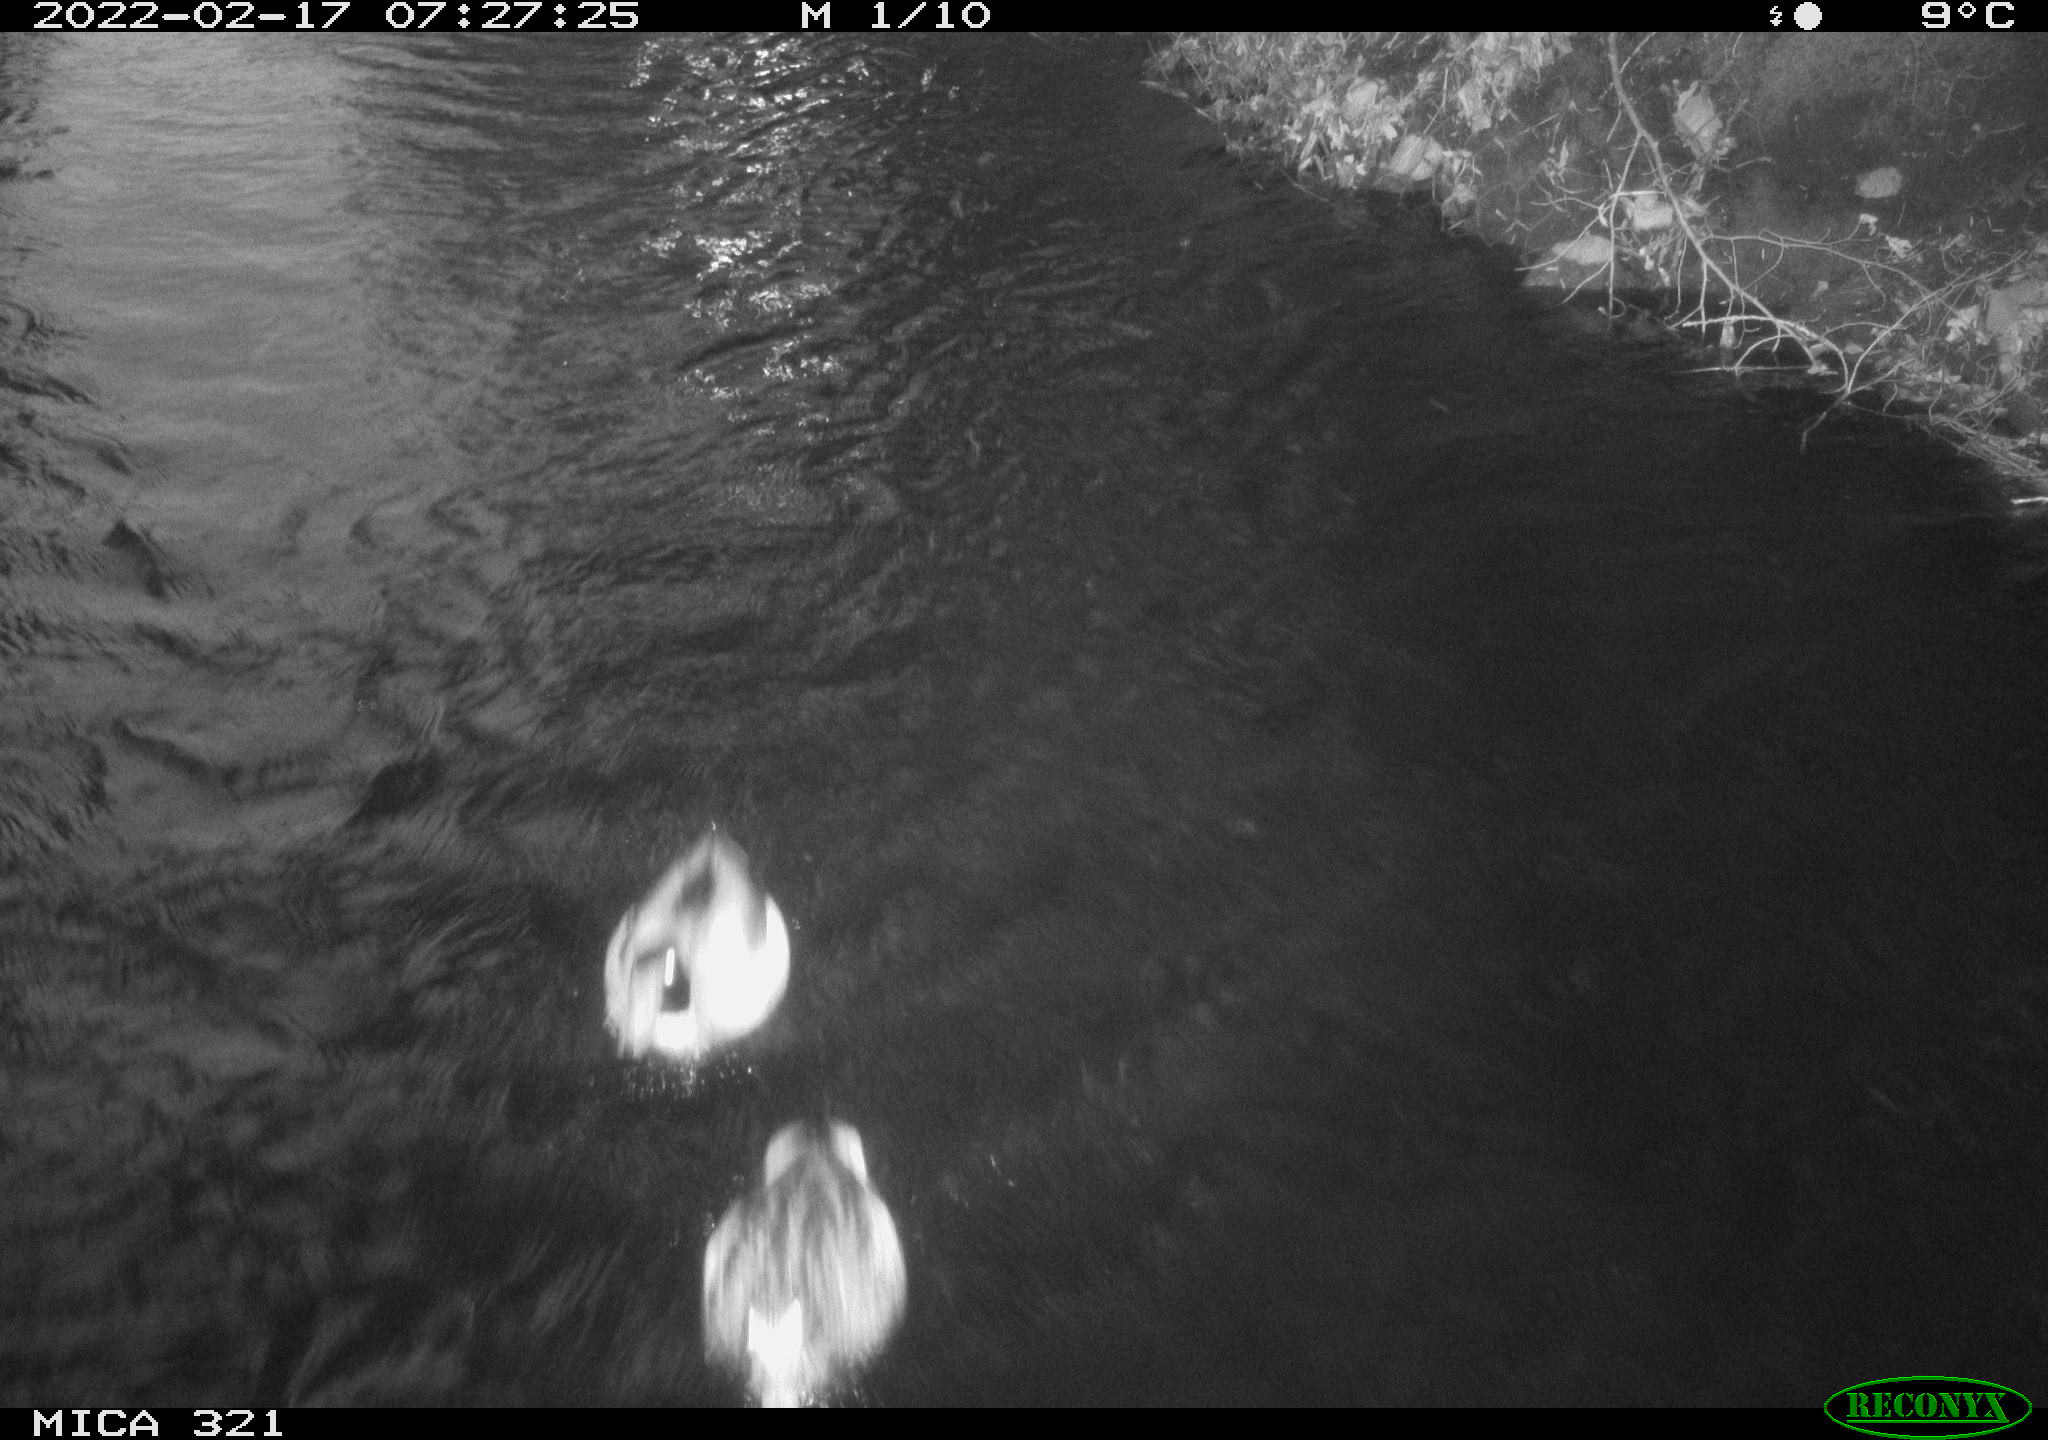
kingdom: Animalia
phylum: Chordata
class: Aves
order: Anseriformes
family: Anatidae
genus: Anas
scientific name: Anas platyrhynchos
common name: Mallard
